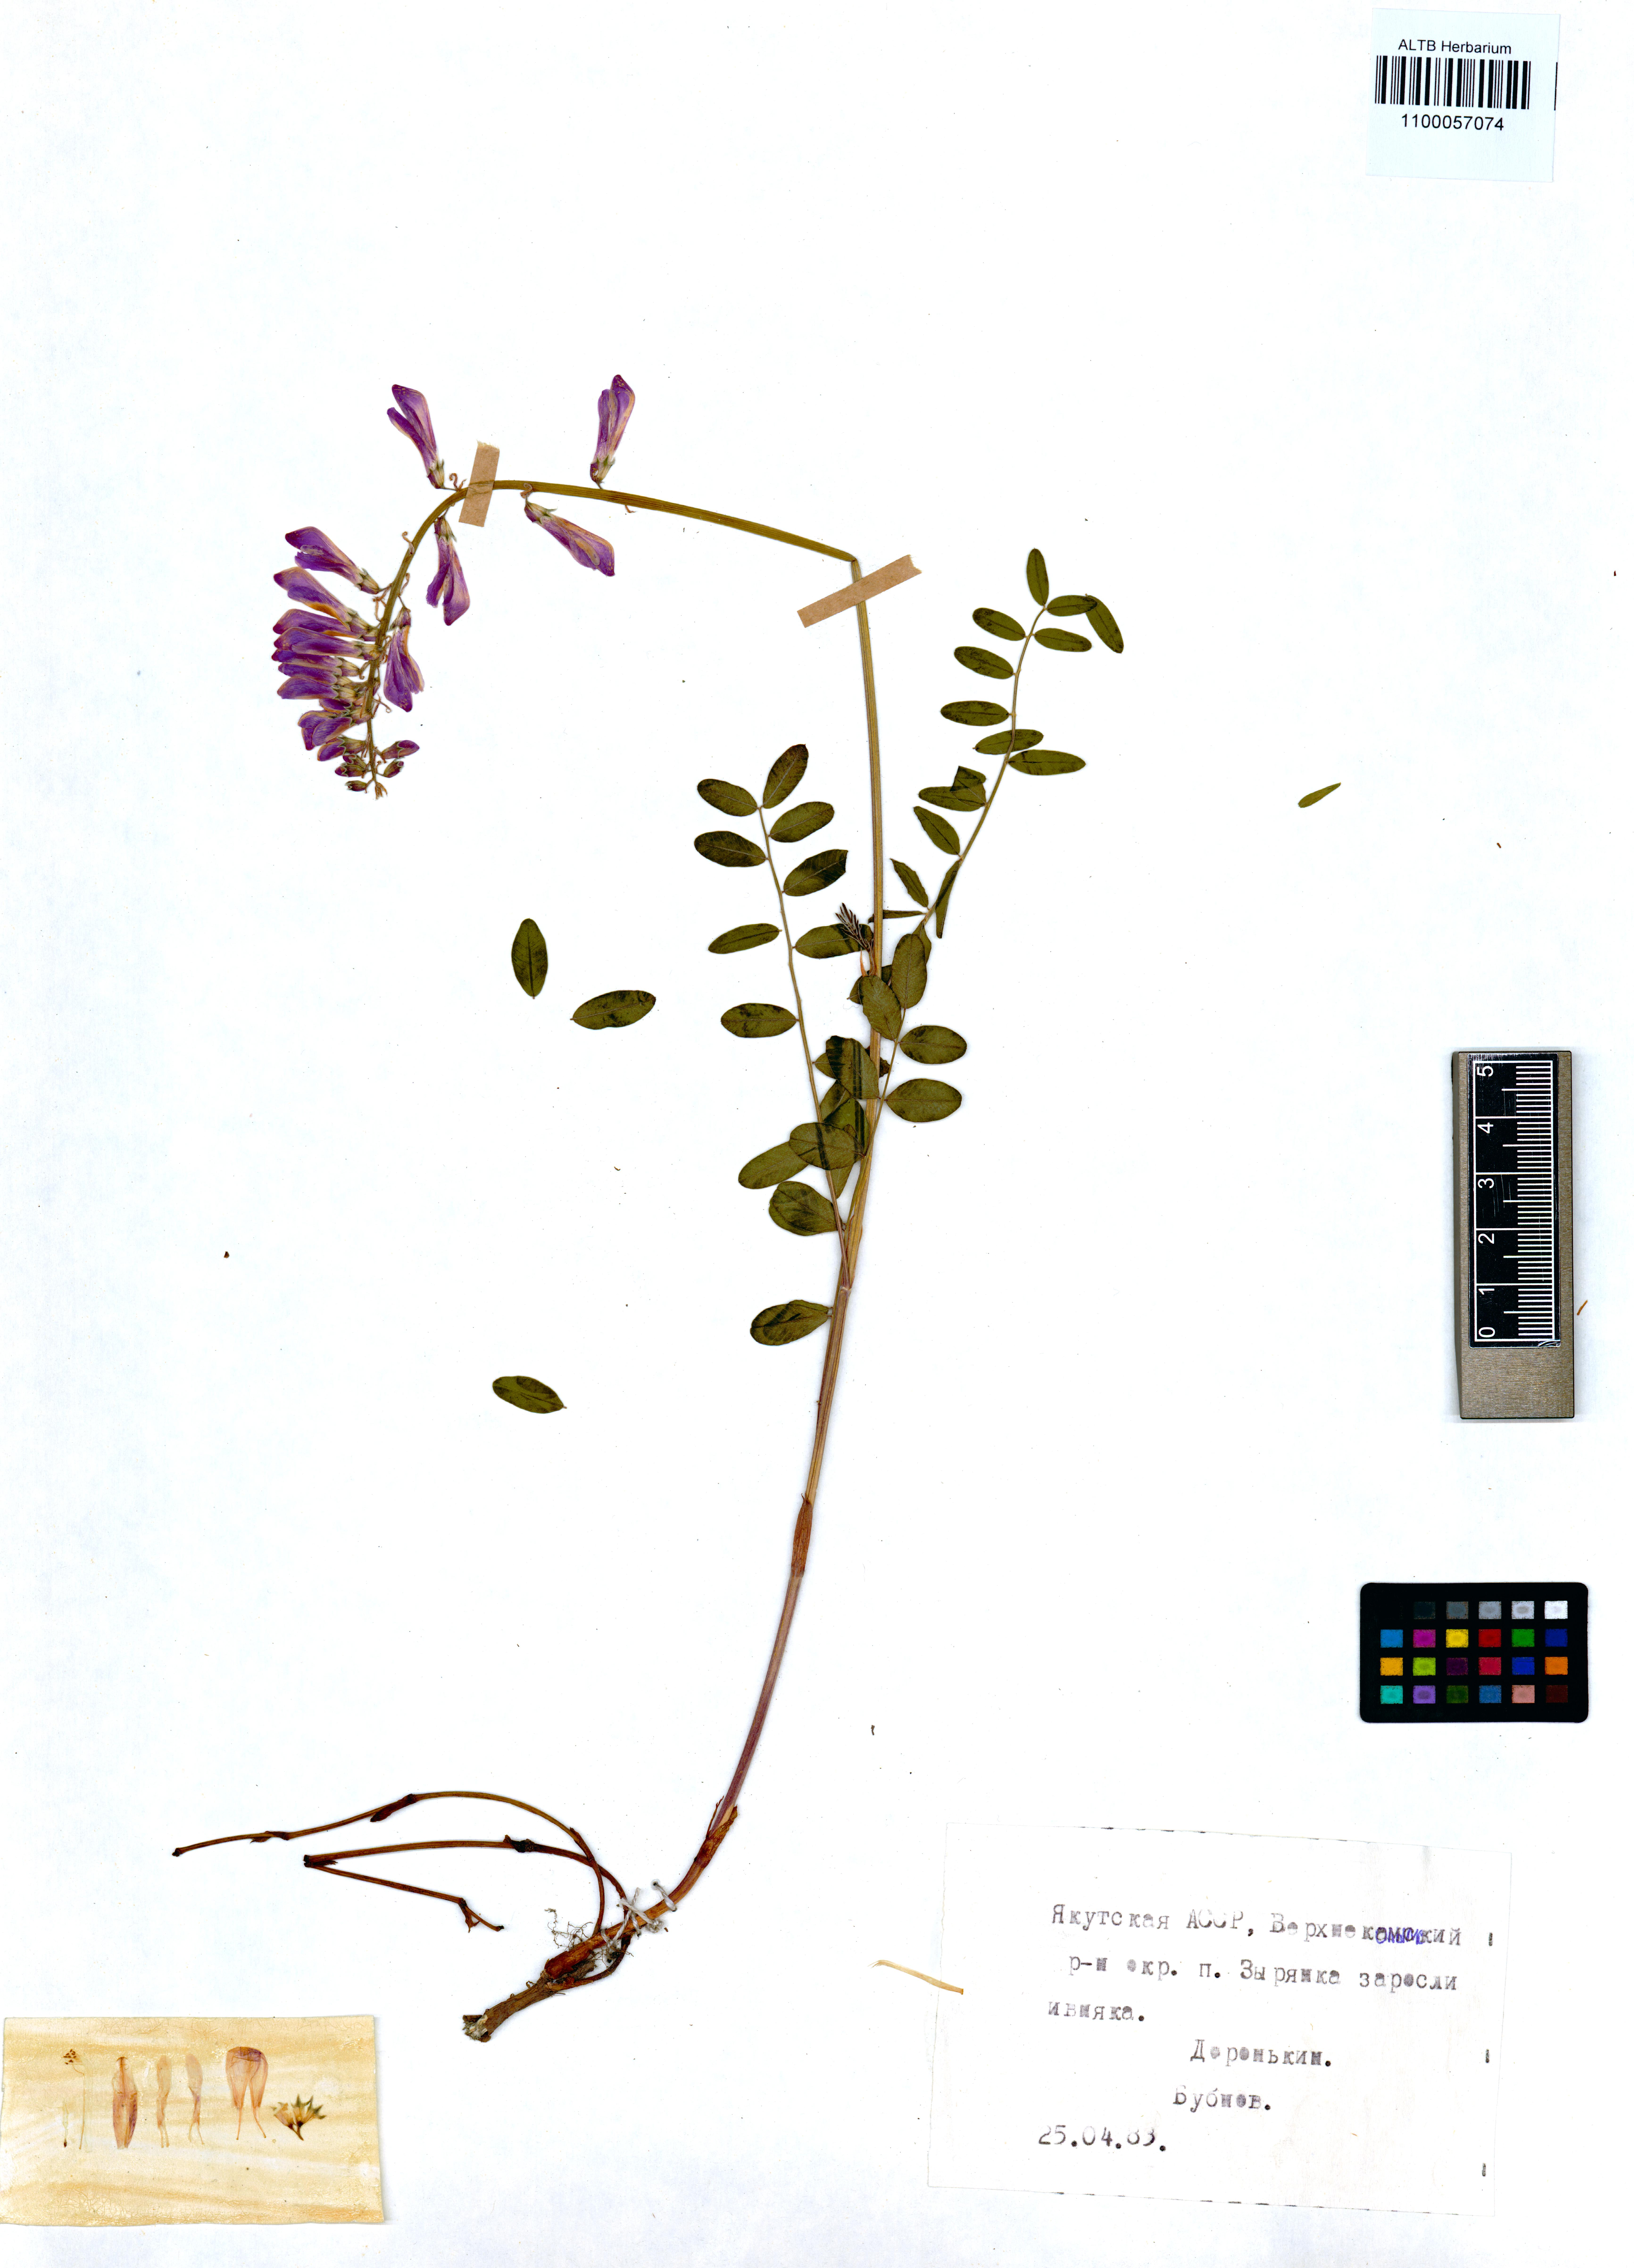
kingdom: Plantae
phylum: Tracheophyta
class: Magnoliopsida
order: Fabales
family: Fabaceae
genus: Hedysarum
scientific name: Hedysarum hedysaroides
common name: Alpine french-honeysuckle
